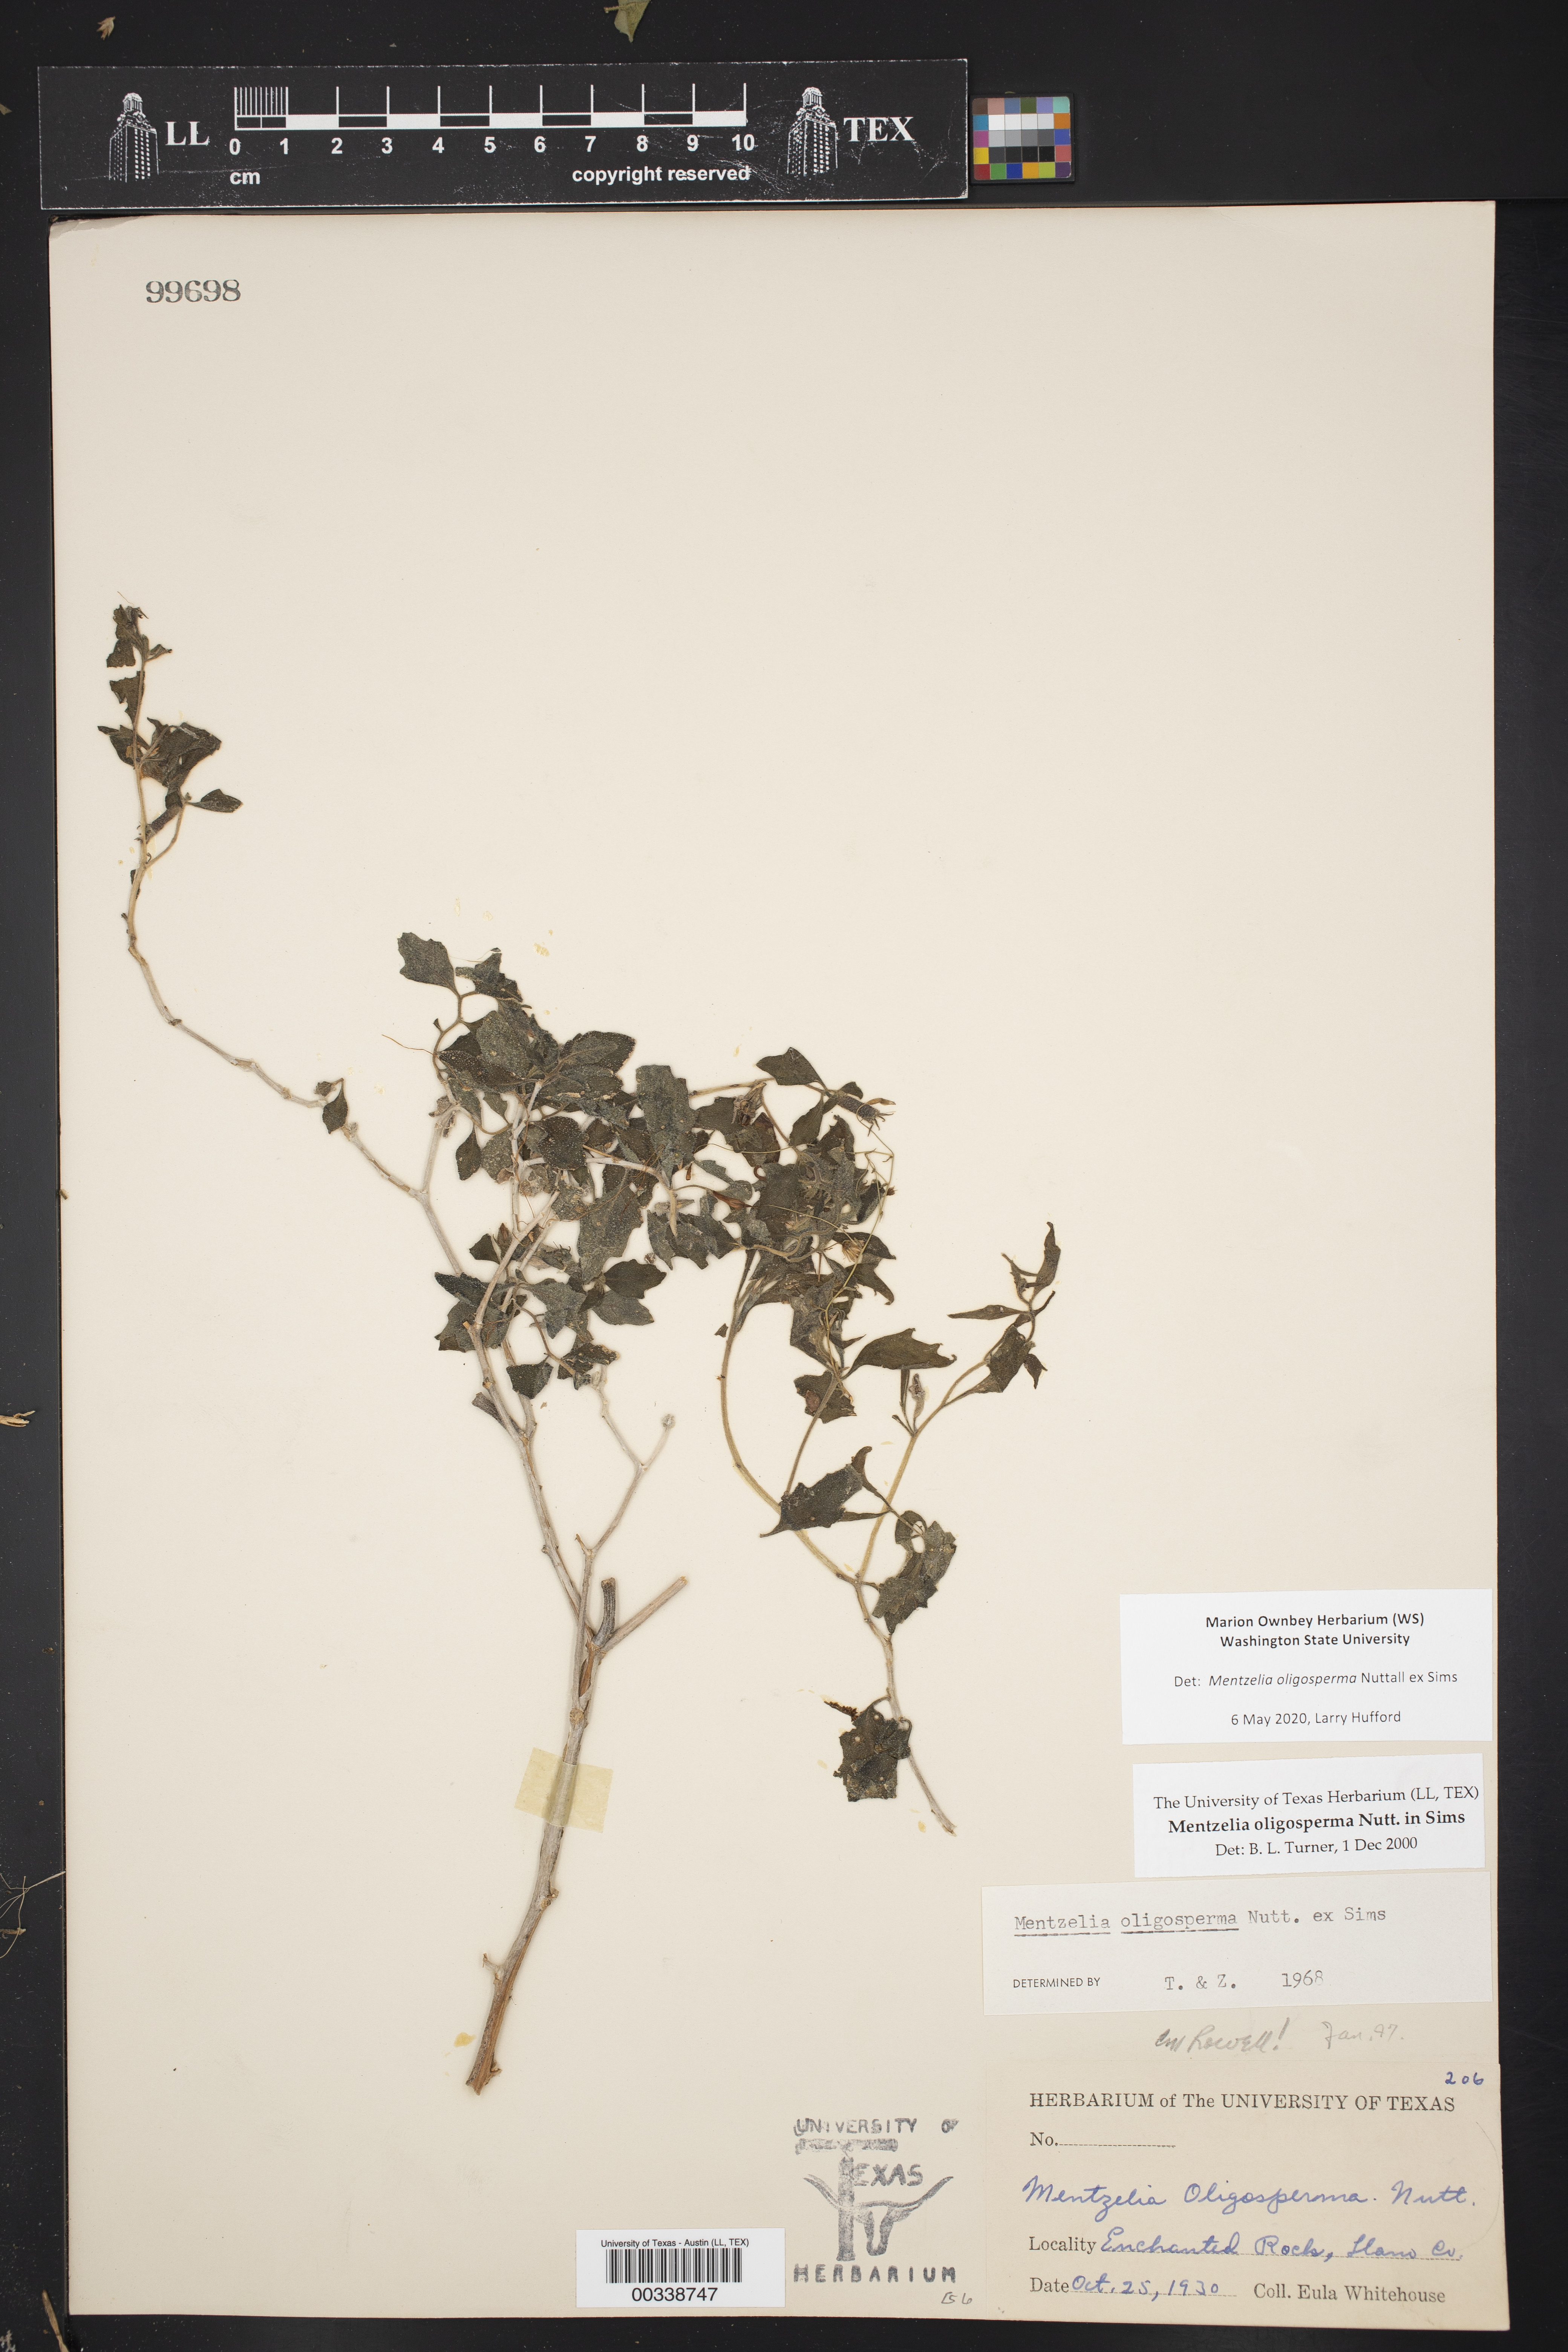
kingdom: Plantae
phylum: Tracheophyta
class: Magnoliopsida
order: Cornales
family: Loasaceae
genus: Mentzelia
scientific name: Mentzelia oligosperma
